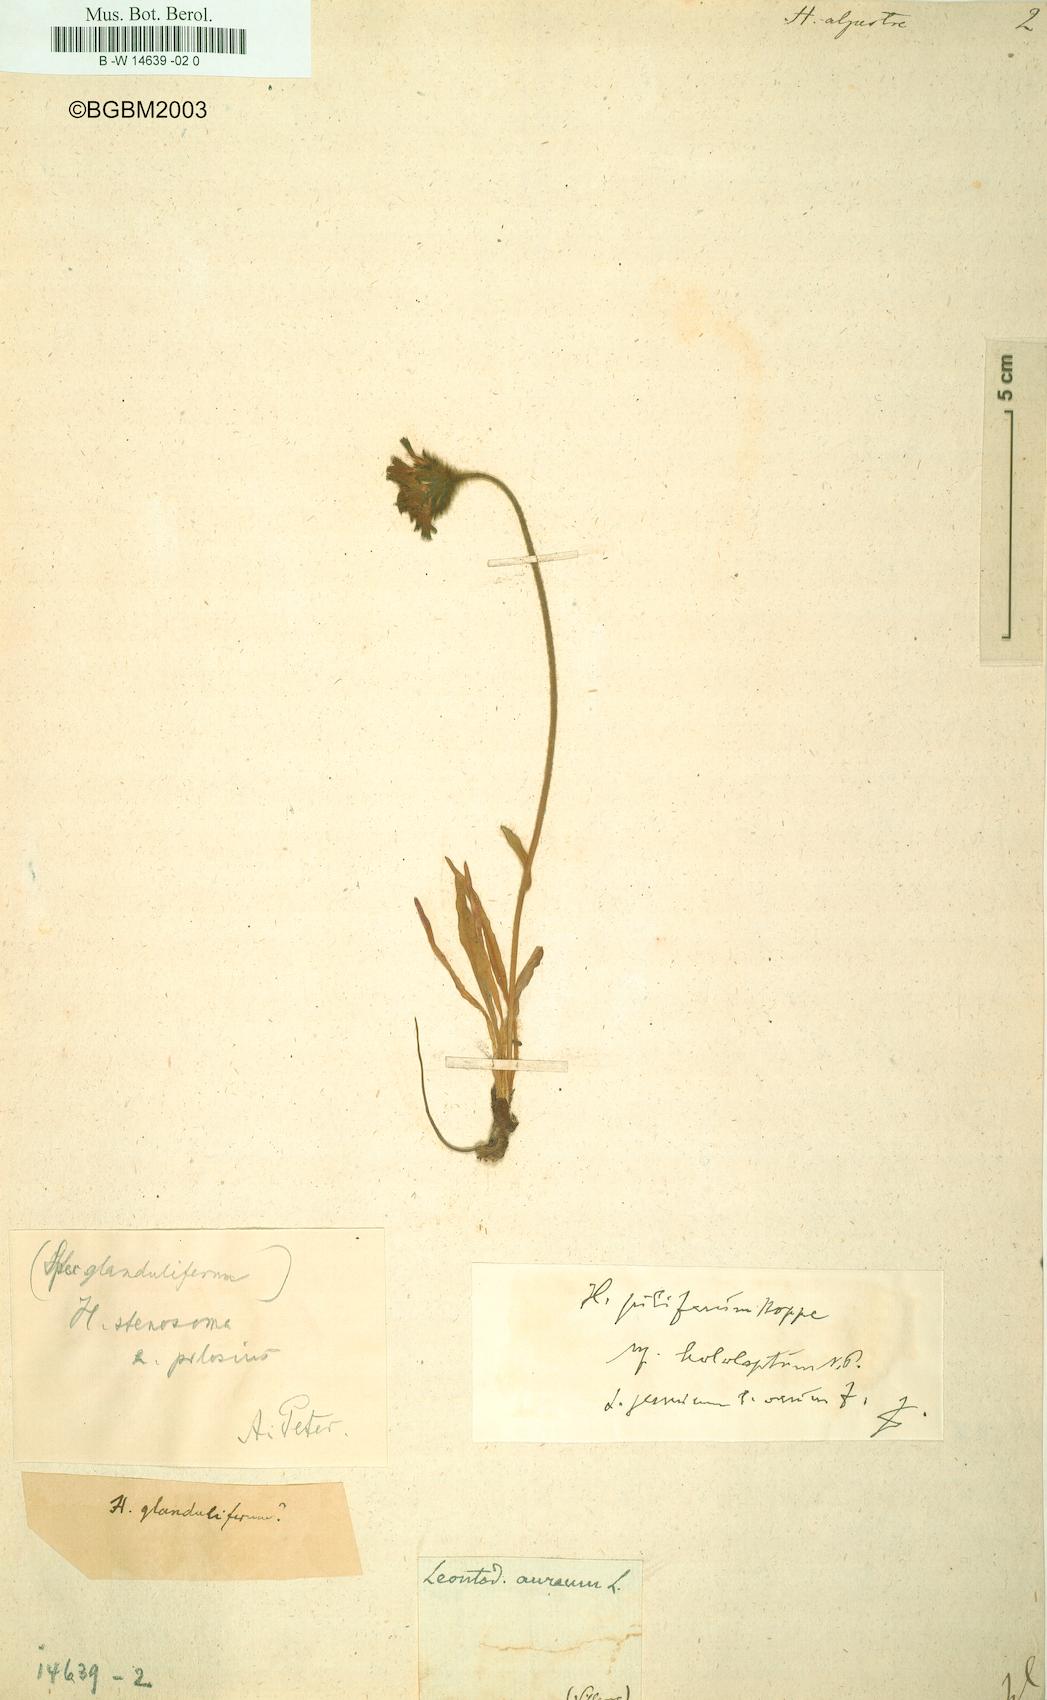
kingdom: Plantae
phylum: Tracheophyta
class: Magnoliopsida
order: Asterales
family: Asteraceae
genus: Hieracium
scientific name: Hieracium alpestre
